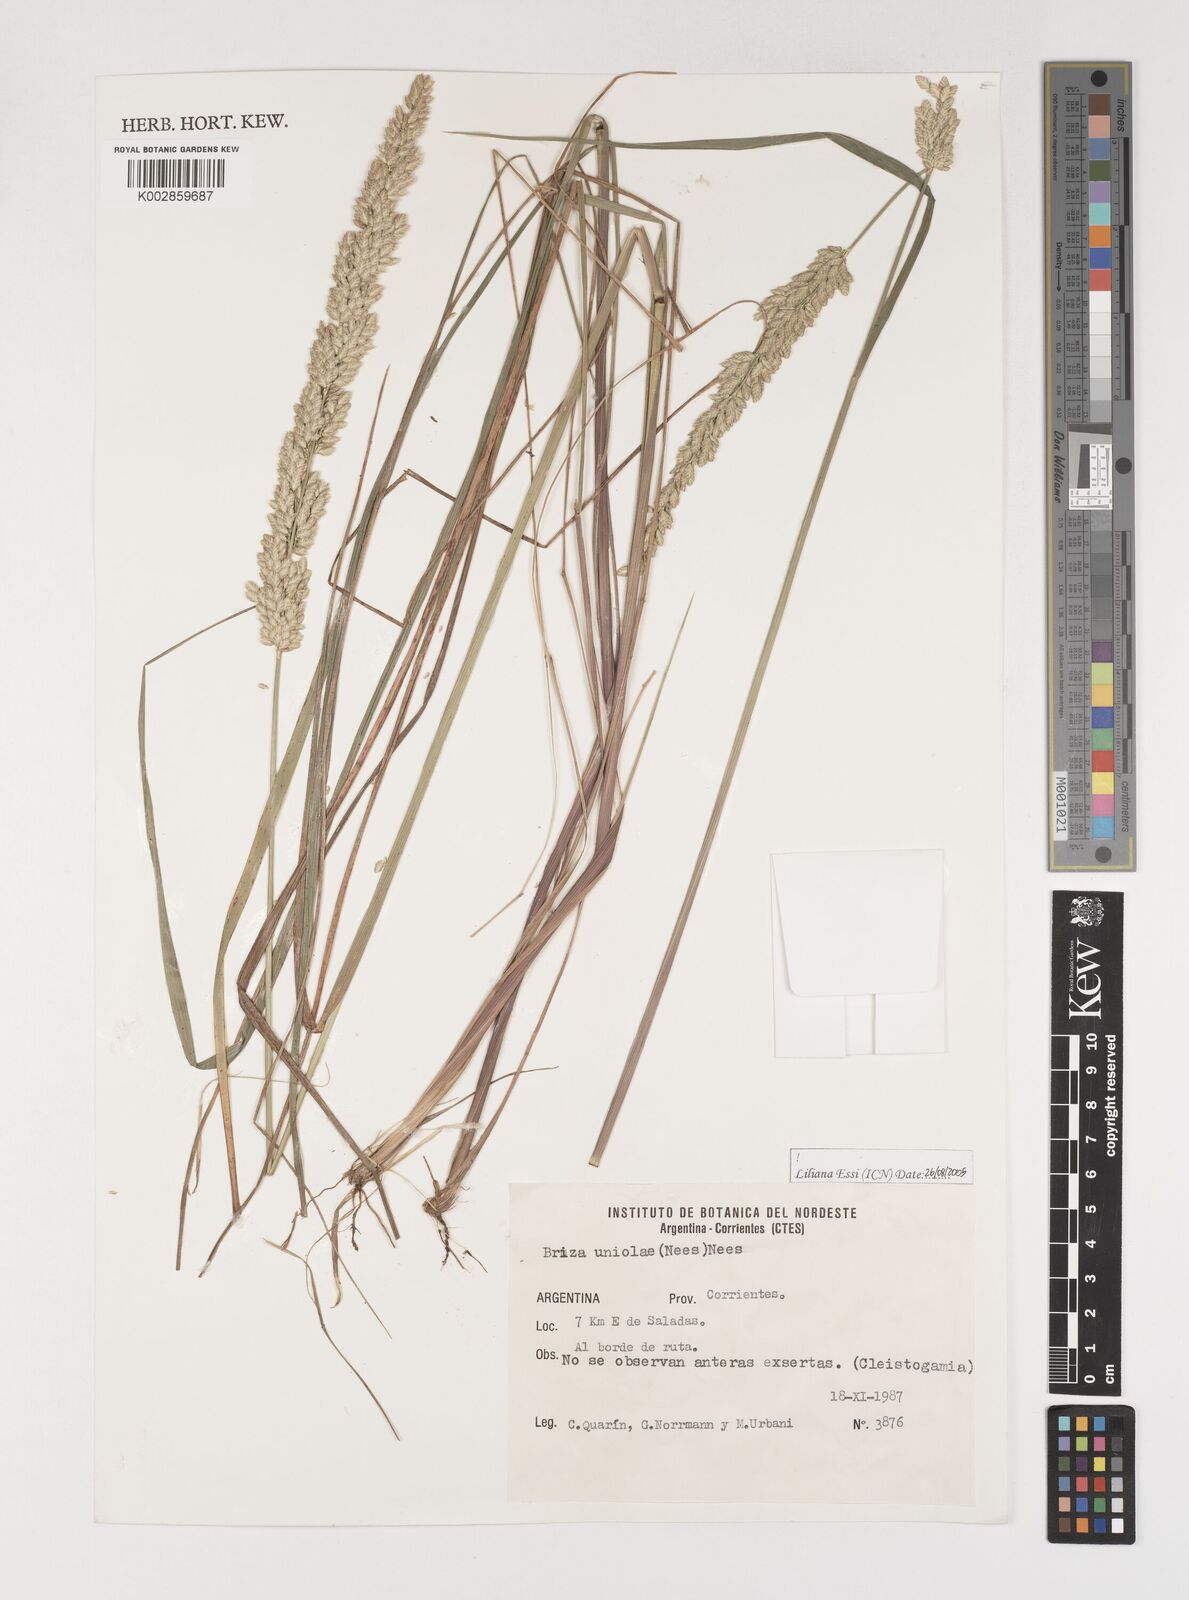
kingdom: Plantae
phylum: Tracheophyta
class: Liliopsida
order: Poales
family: Poaceae
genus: Poidium
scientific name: Poidium uniolae
